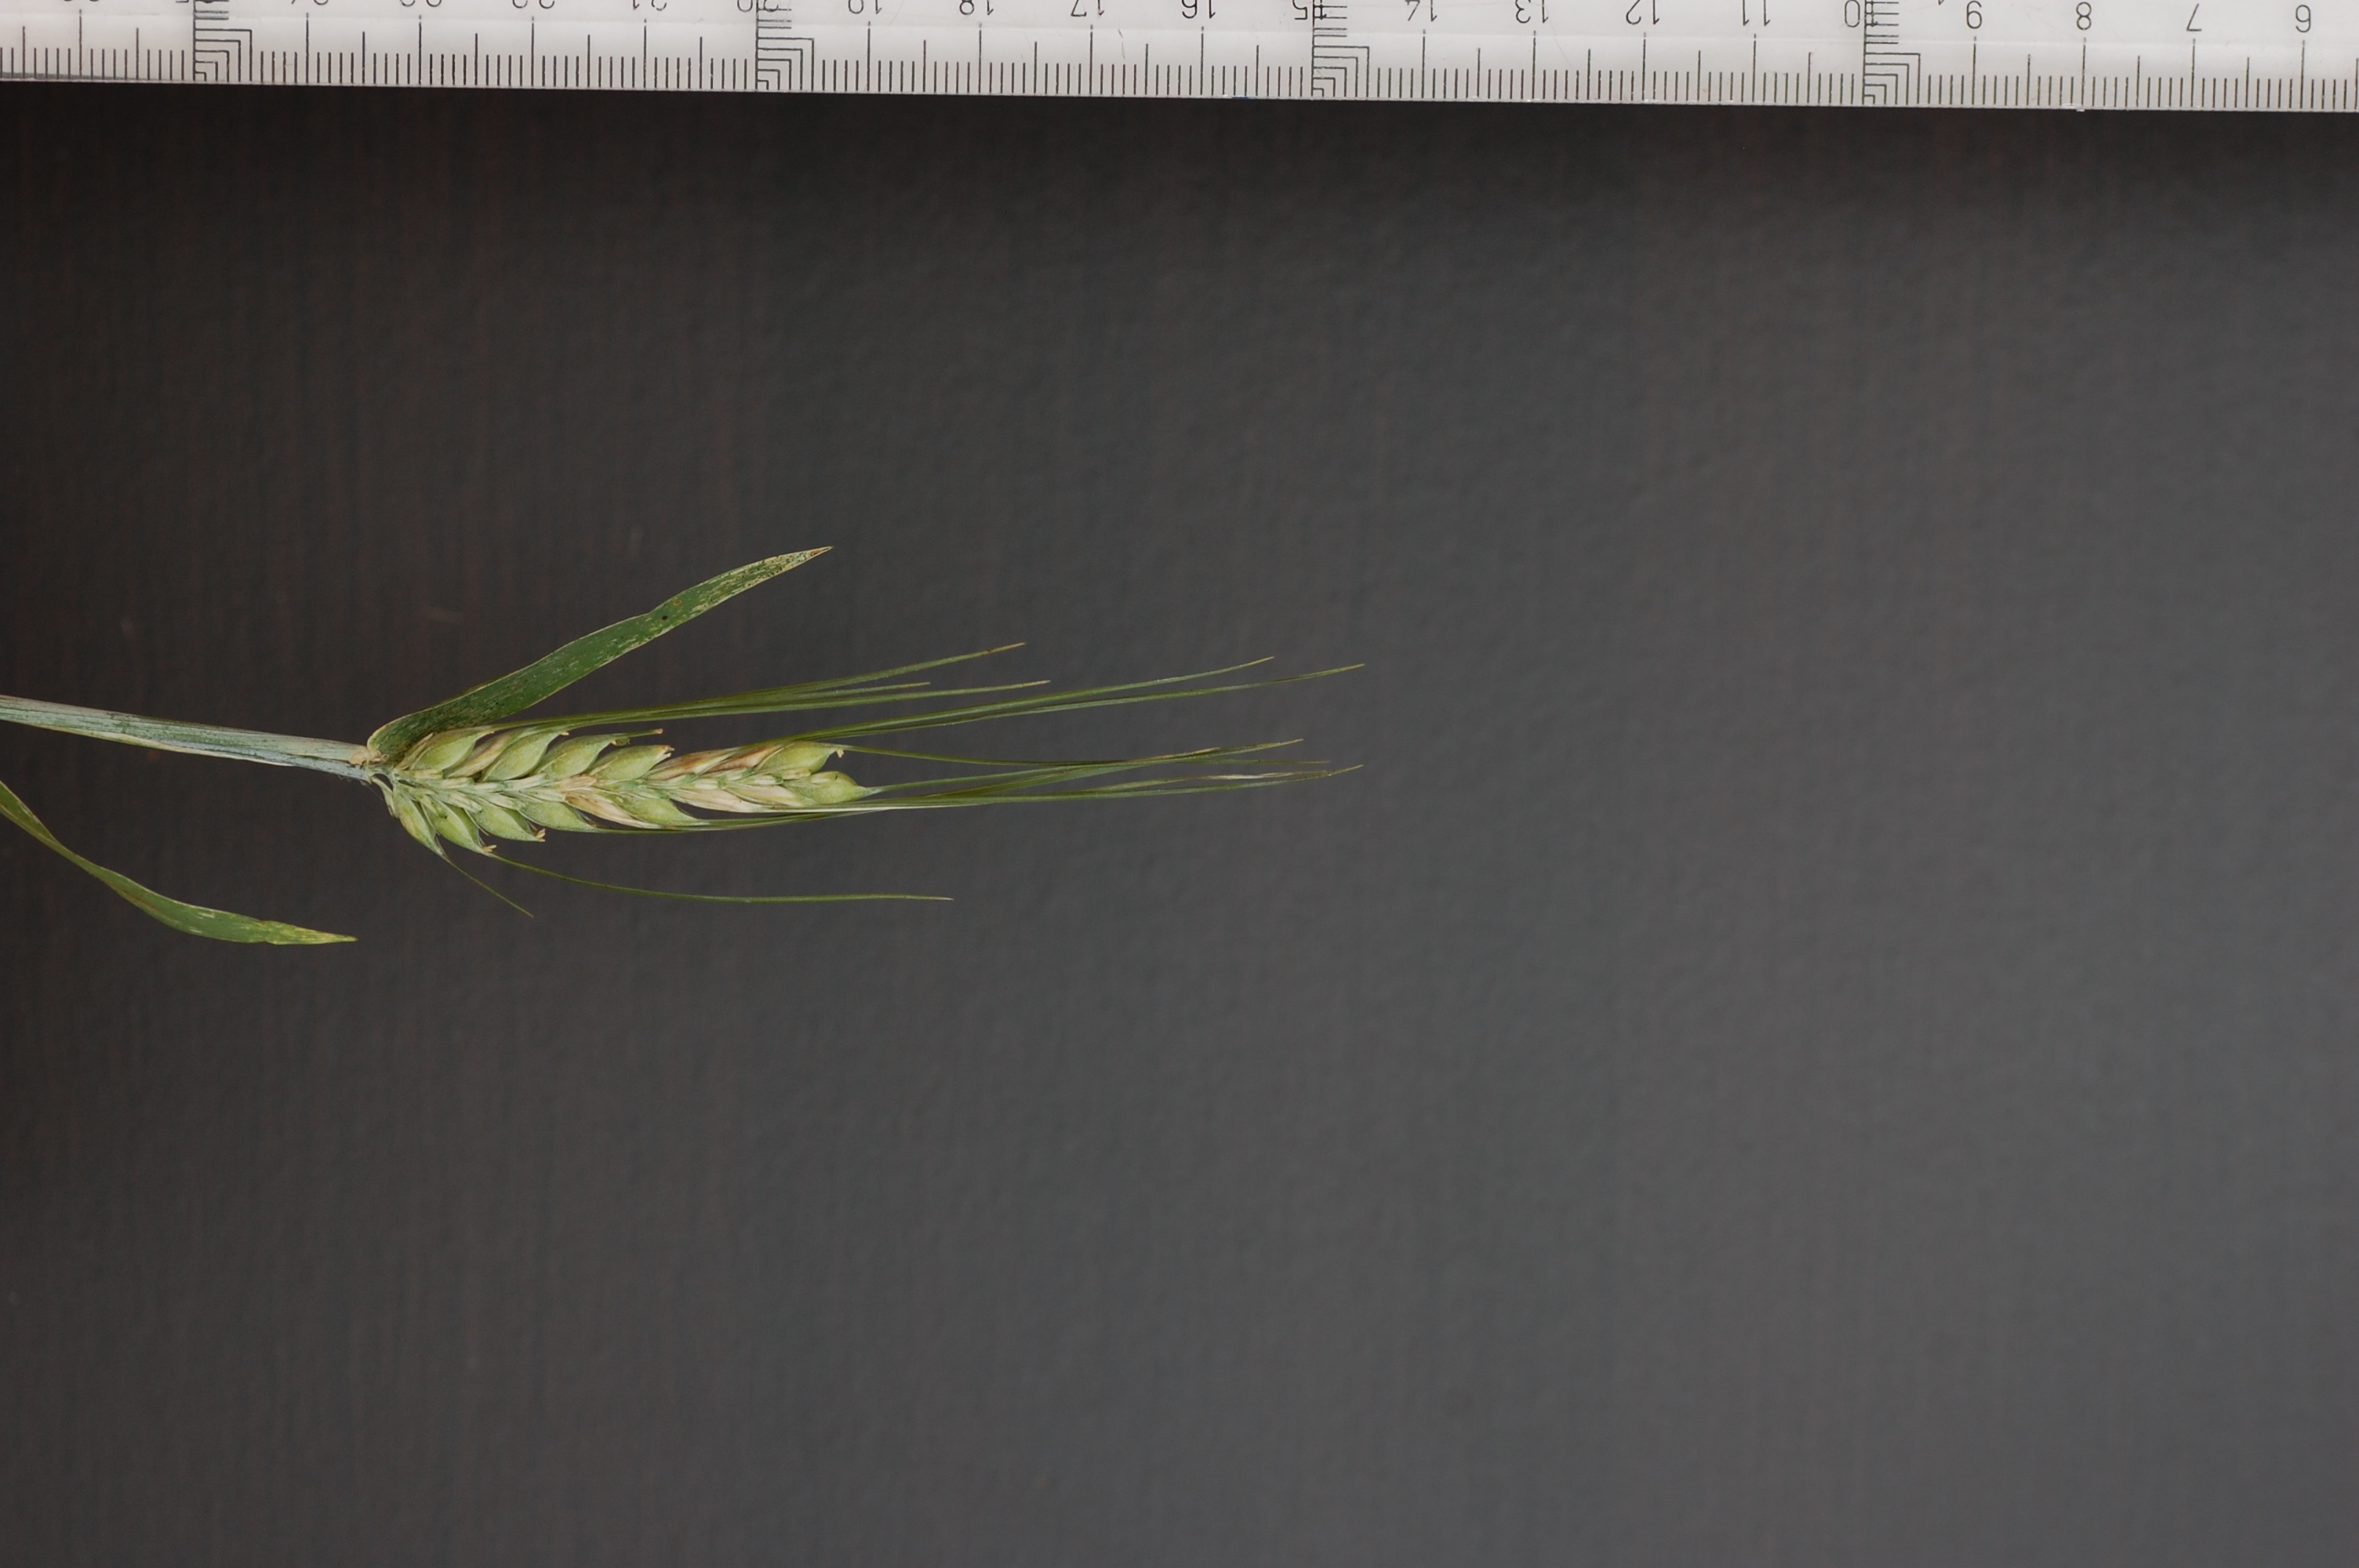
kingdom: Plantae
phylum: Tracheophyta
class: Liliopsida
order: Poales
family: Poaceae
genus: Hordeum
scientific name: Hordeum vulgare
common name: Common barley
